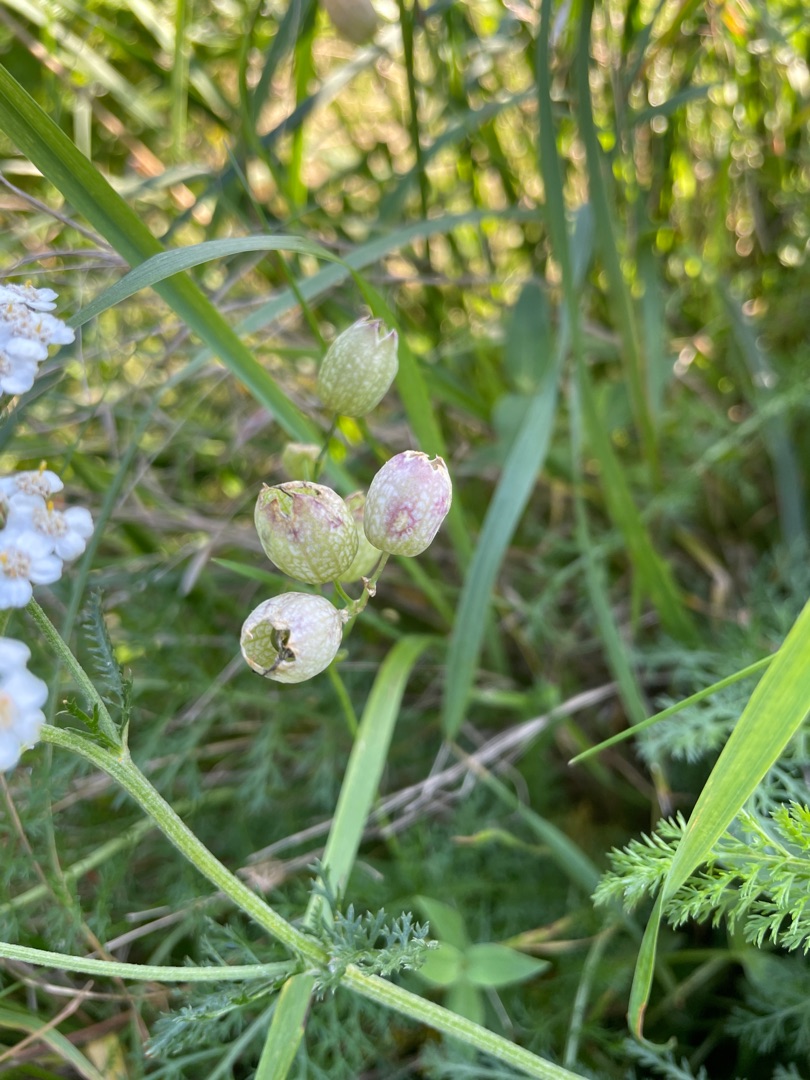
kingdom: Plantae
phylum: Tracheophyta
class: Magnoliopsida
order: Caryophyllales
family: Caryophyllaceae
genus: Silene
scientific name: Silene vulgaris
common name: Blæresmælde
